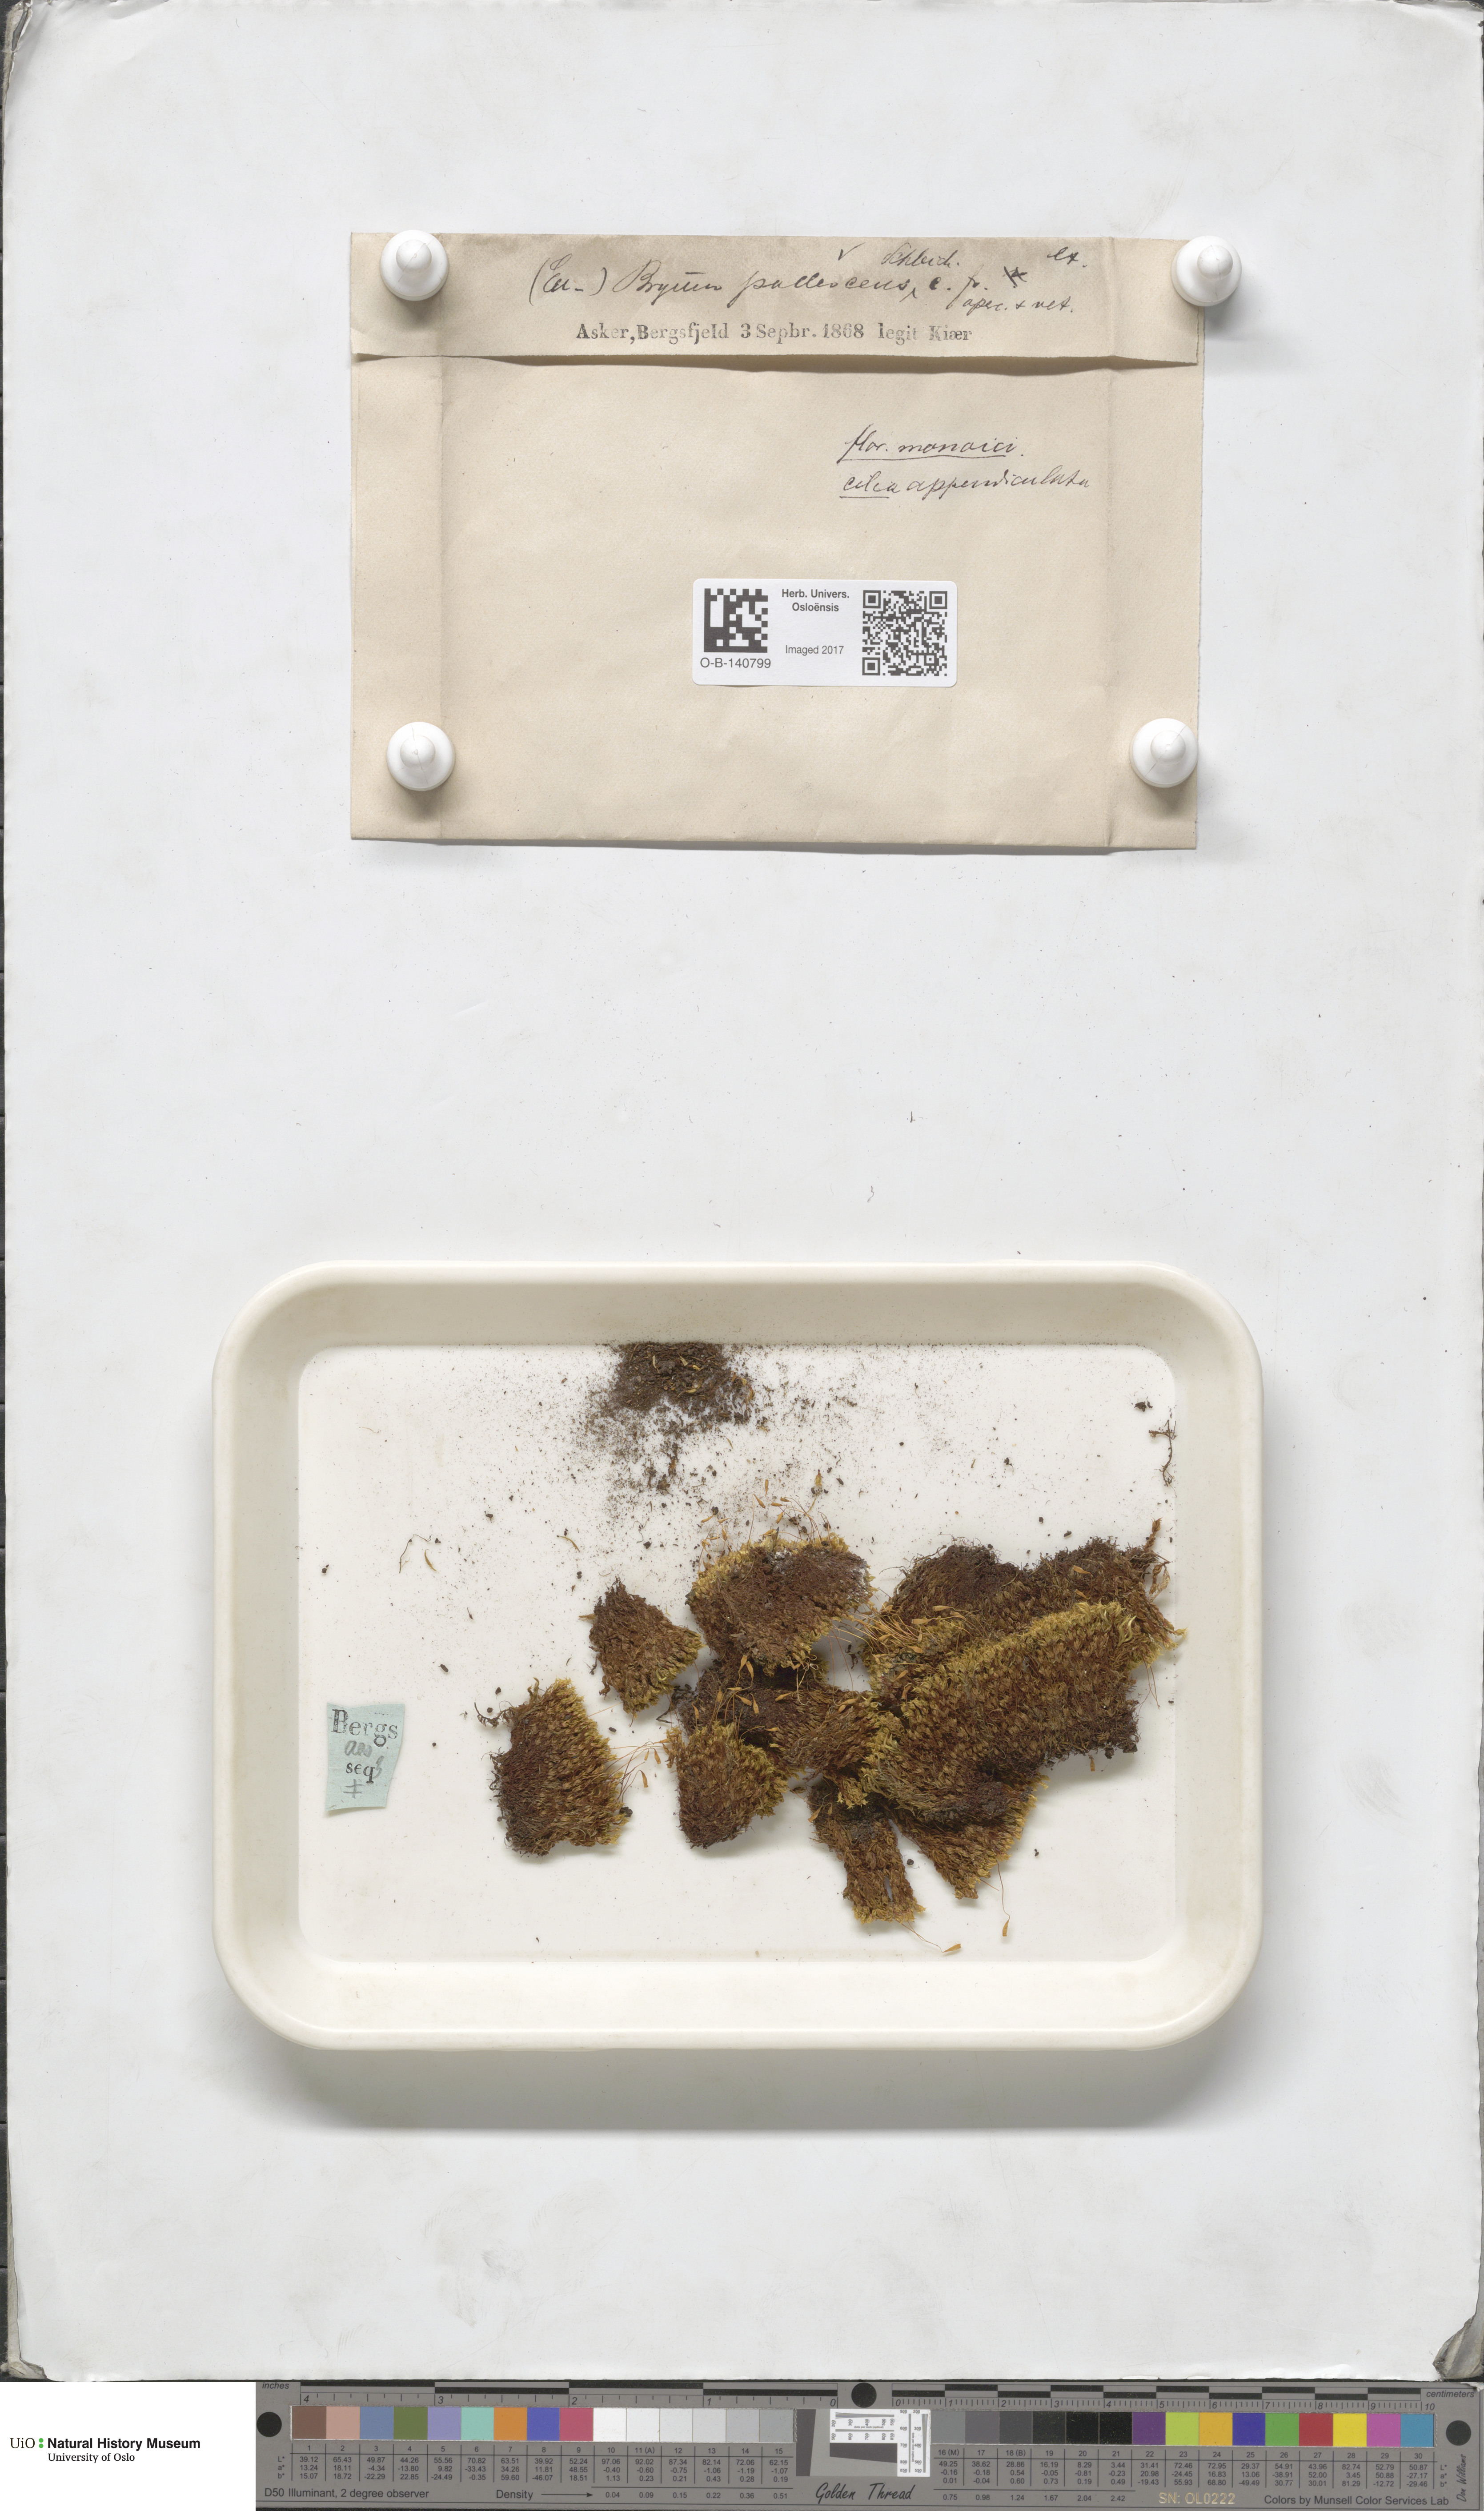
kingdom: Plantae
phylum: Bryophyta
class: Bryopsida
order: Bryales
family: Bryaceae
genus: Ptychostomum
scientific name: Ptychostomum pallescens
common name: Tall-clustered thread-moss
